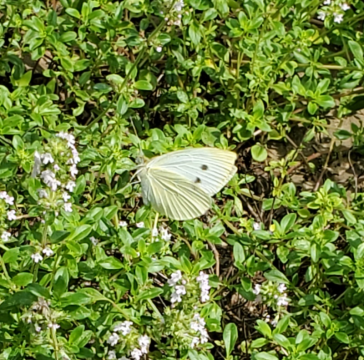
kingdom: Animalia
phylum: Arthropoda
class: Insecta
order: Lepidoptera
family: Pieridae
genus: Pieris
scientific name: Pieris rapae
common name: Cabbage White
